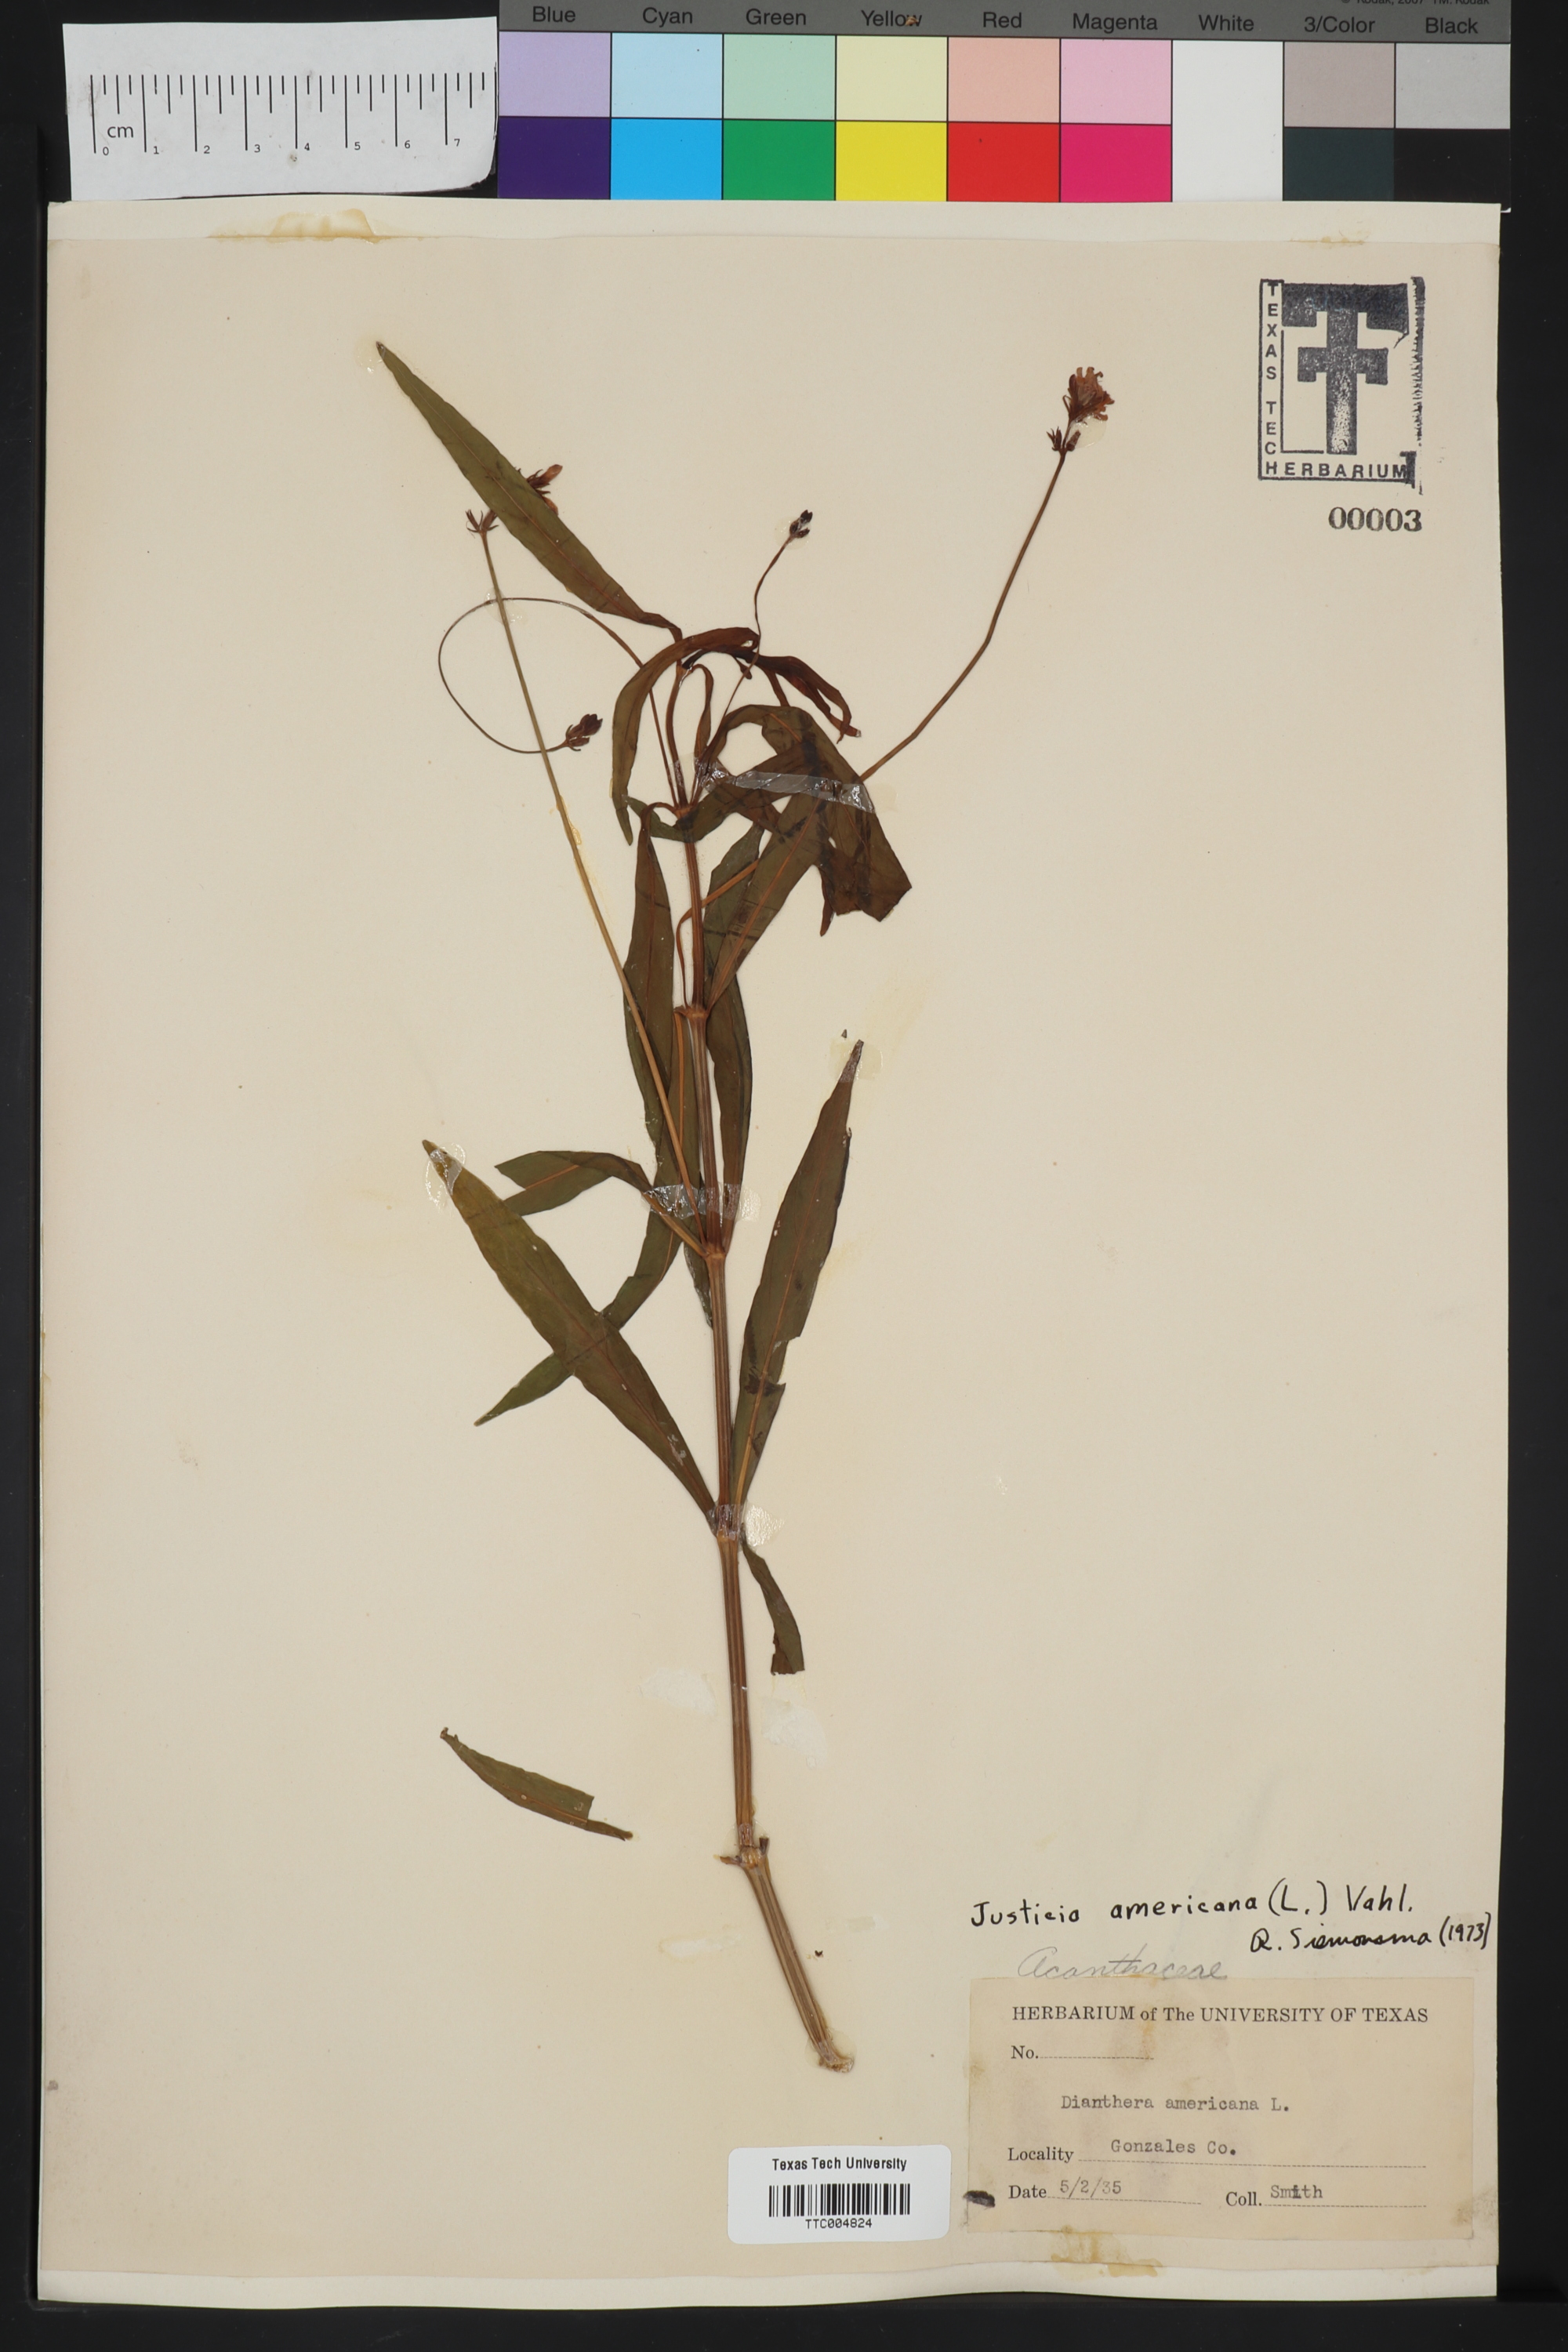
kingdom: Plantae
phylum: Tracheophyta
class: Magnoliopsida
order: Lamiales
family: Acanthaceae
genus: Dianthera
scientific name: Dianthera americana
